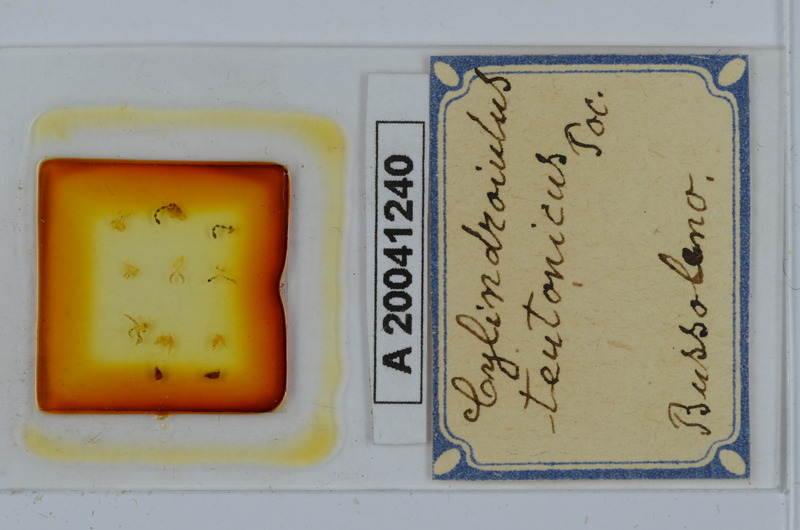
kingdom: Animalia
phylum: Arthropoda
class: Diplopoda
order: Julida
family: Julidae
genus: Cylindroiulus
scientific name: Cylindroiulus teutonicus
